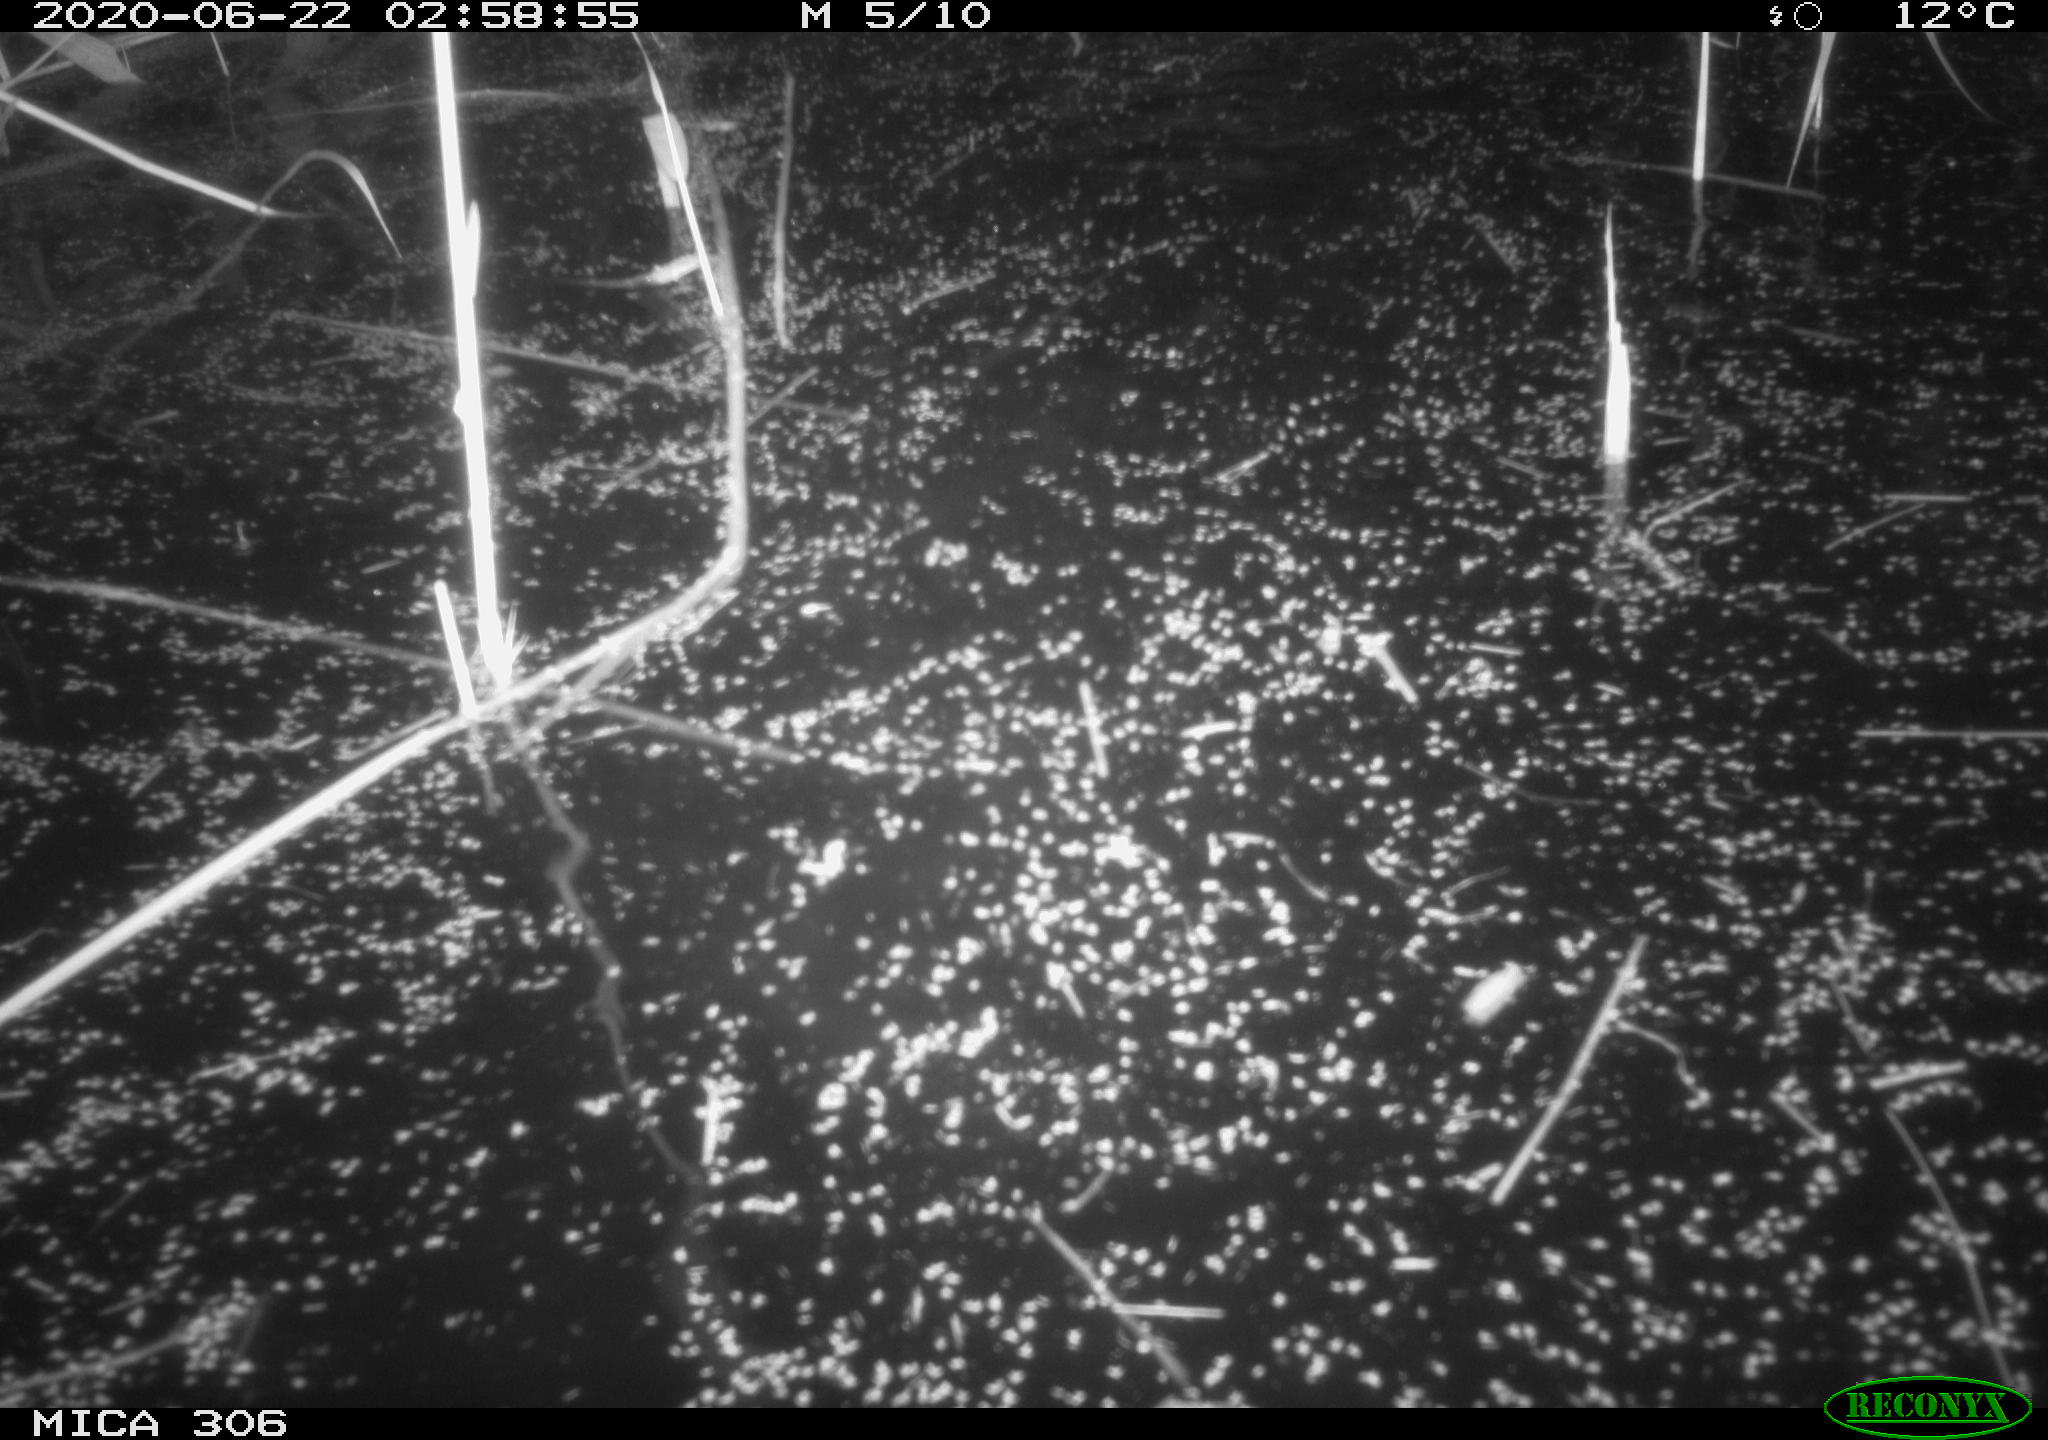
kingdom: Animalia
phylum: Chordata
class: Mammalia
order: Rodentia
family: Cricetidae
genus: Ondatra
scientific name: Ondatra zibethicus
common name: Muskrat
